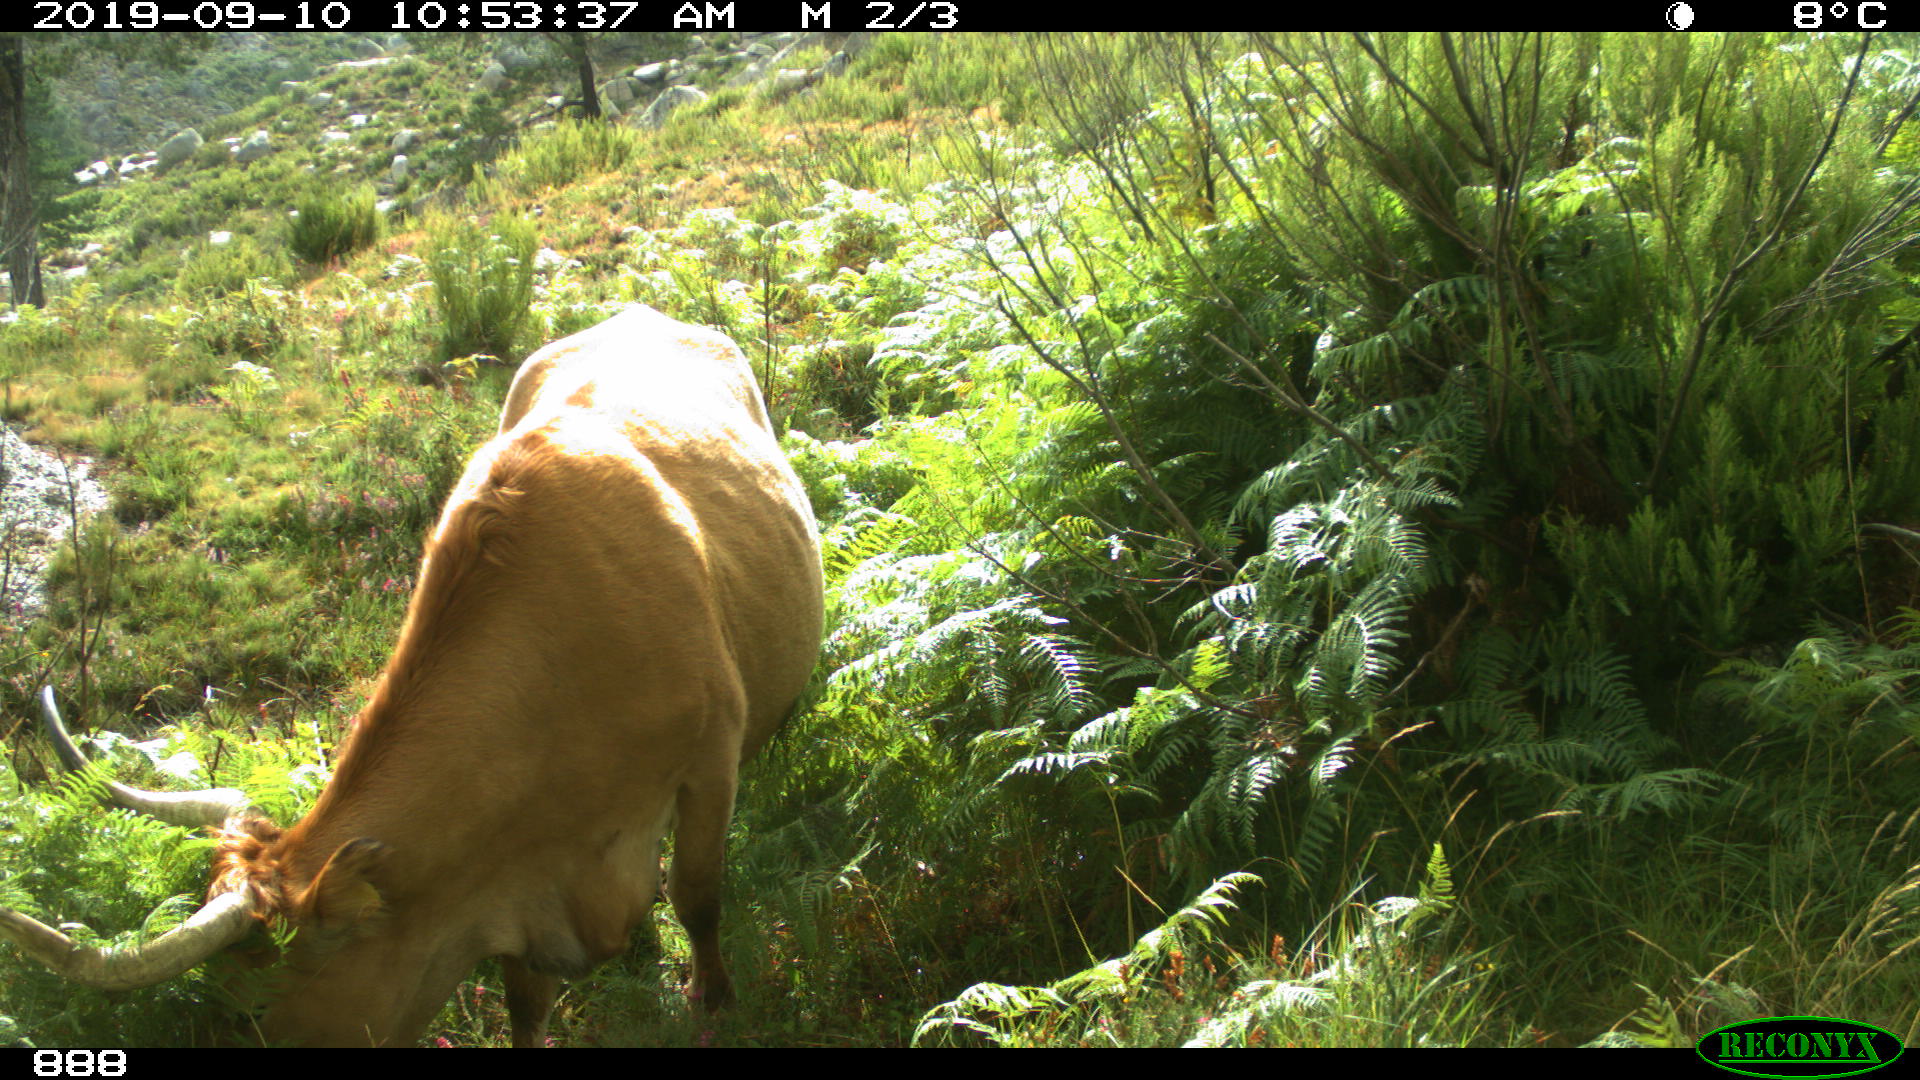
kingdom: Animalia
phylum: Chordata
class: Mammalia
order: Artiodactyla
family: Bovidae
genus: Bos
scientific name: Bos taurus
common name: Domesticated cattle
